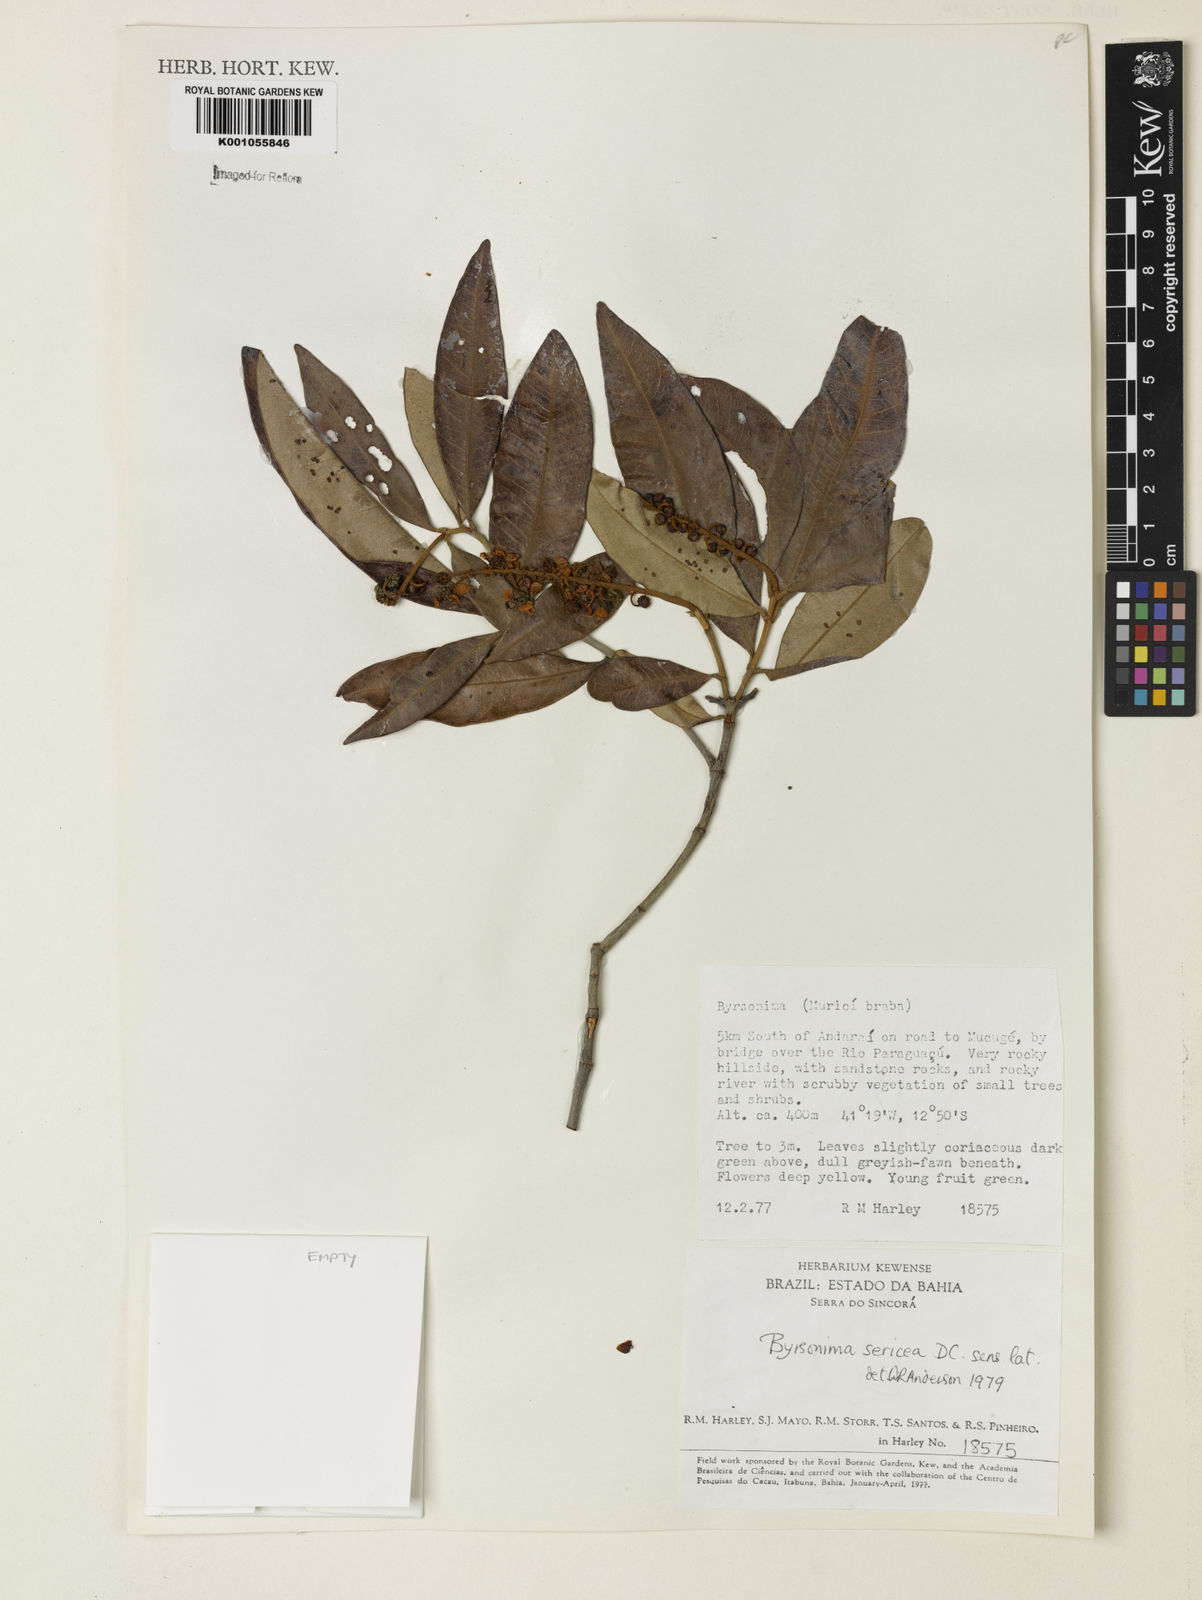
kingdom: Plantae
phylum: Tracheophyta
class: Magnoliopsida
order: Malpighiales
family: Malpighiaceae
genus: Byrsonima
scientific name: Byrsonima sericea
